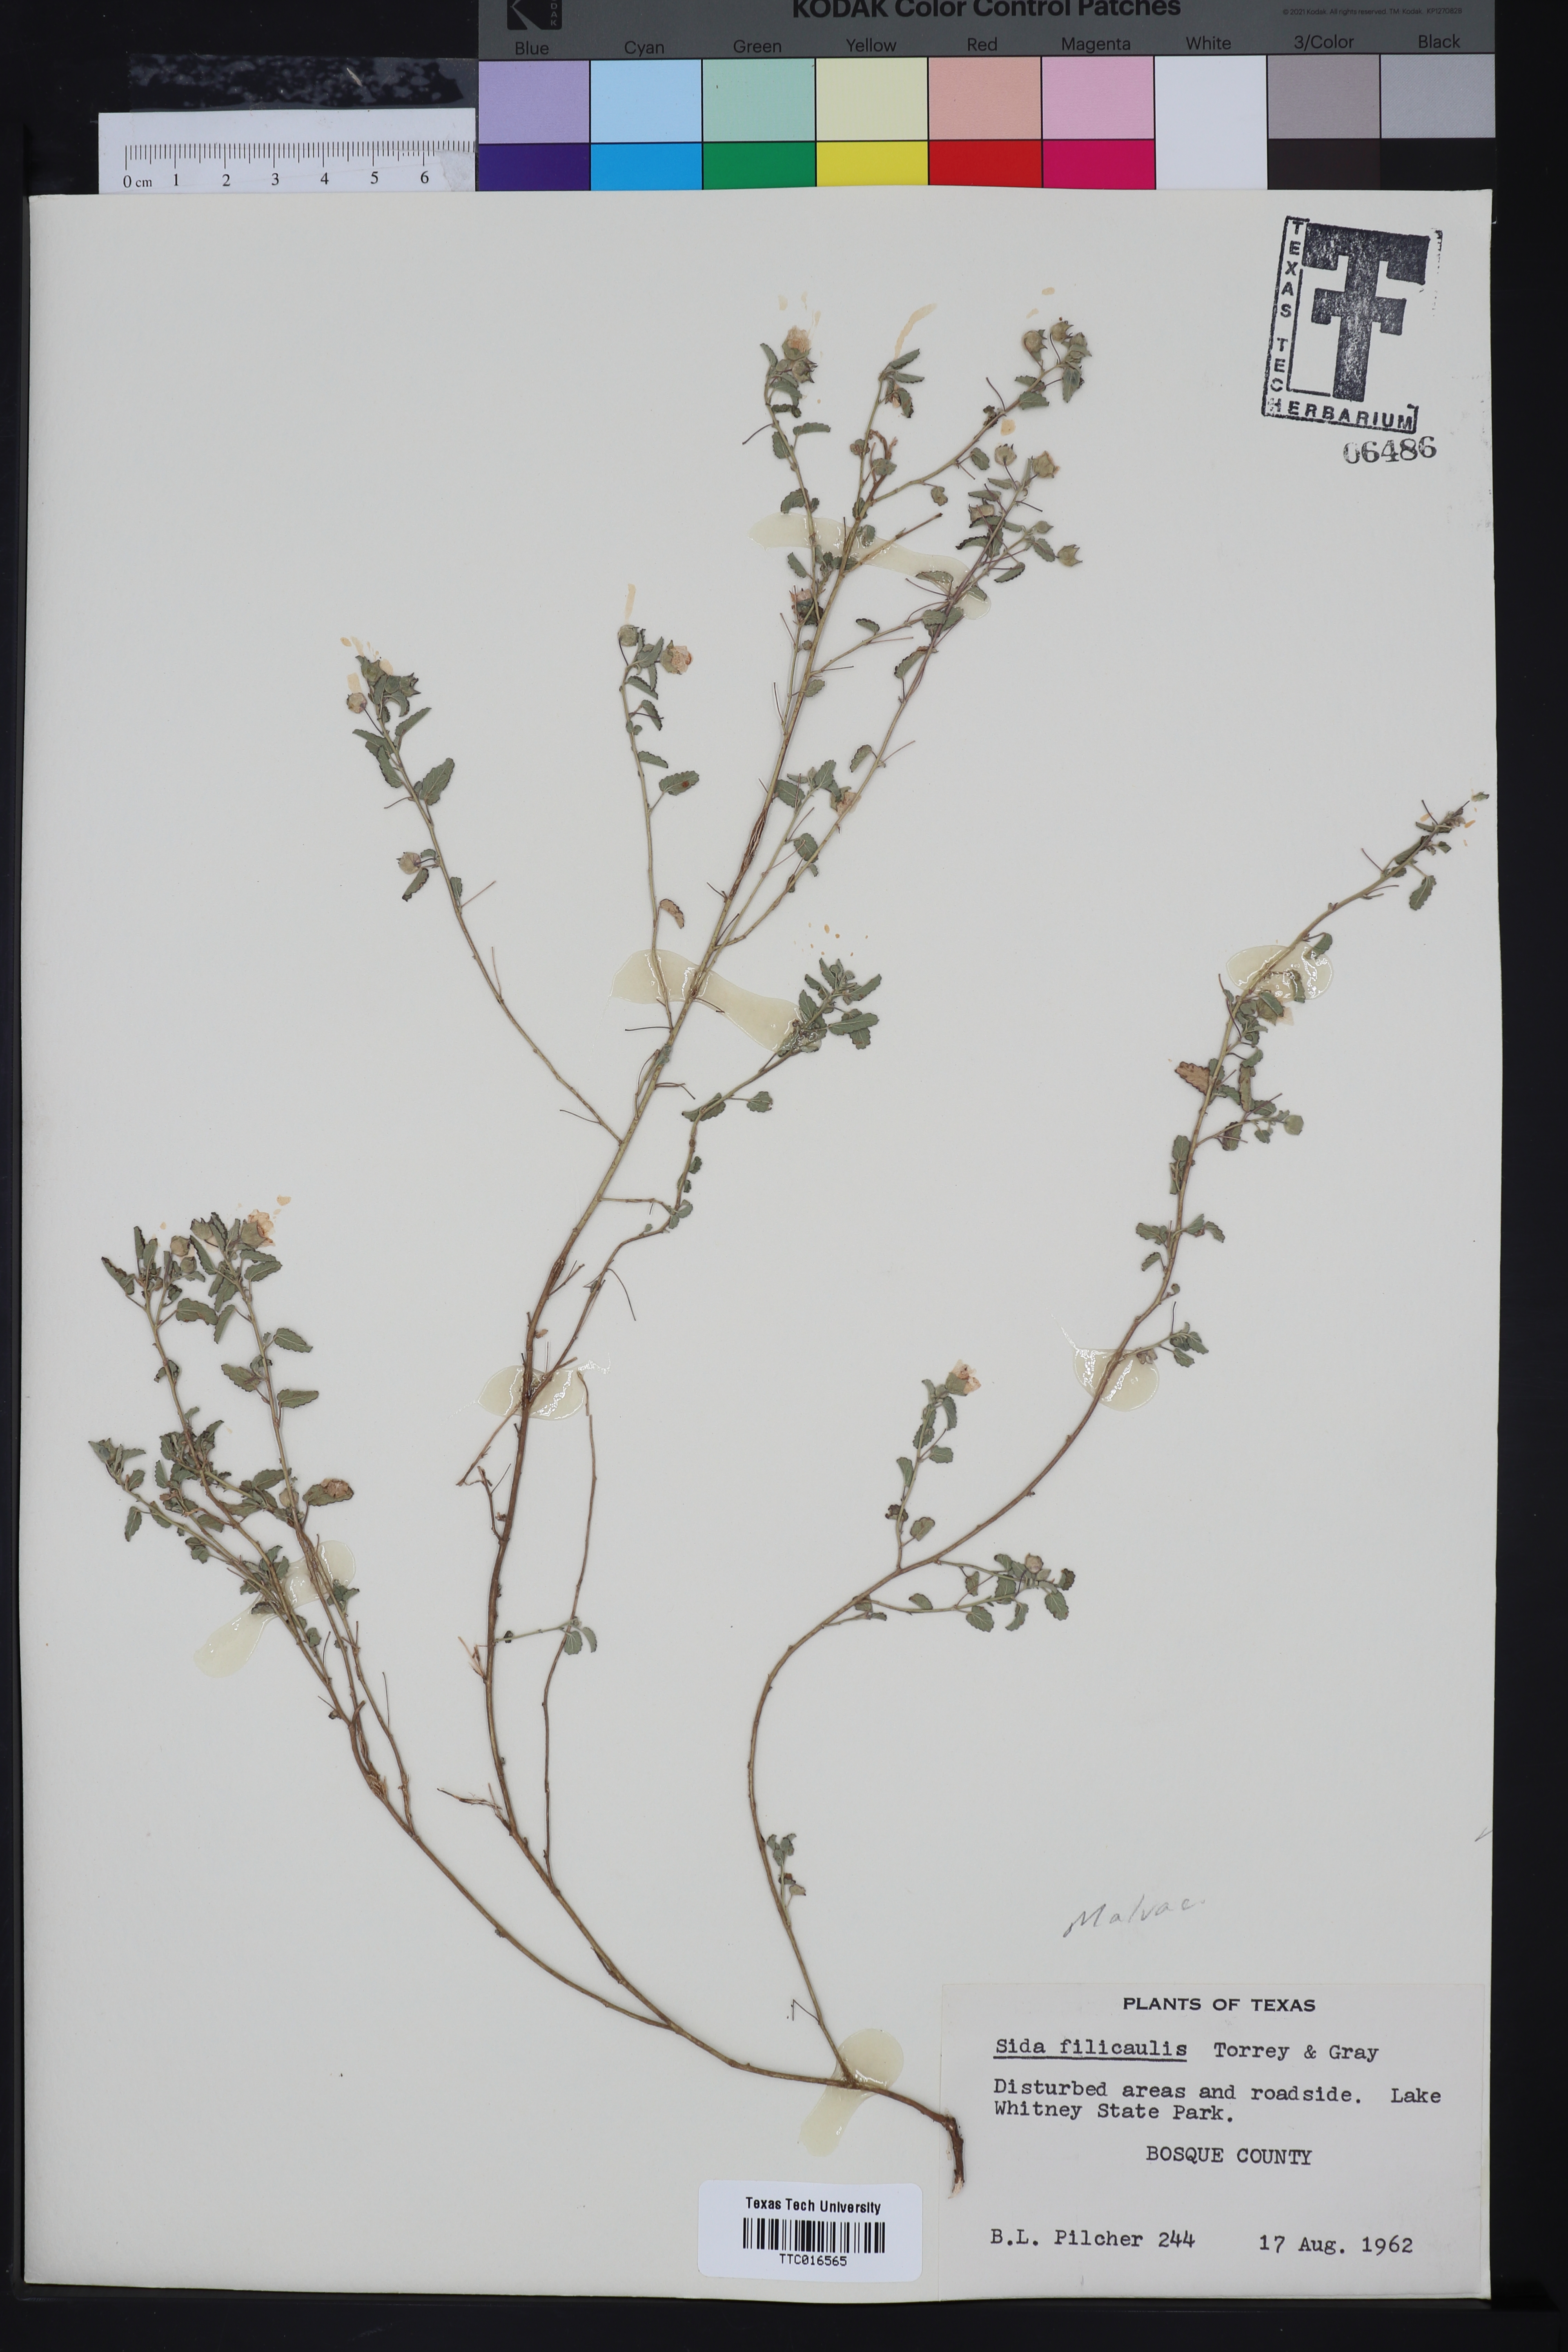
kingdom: Plantae
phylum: Tracheophyta
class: Magnoliopsida
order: Malvales
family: Malvaceae
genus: Sida
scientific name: Sida abutilifolia
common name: Spreading fanpetals
